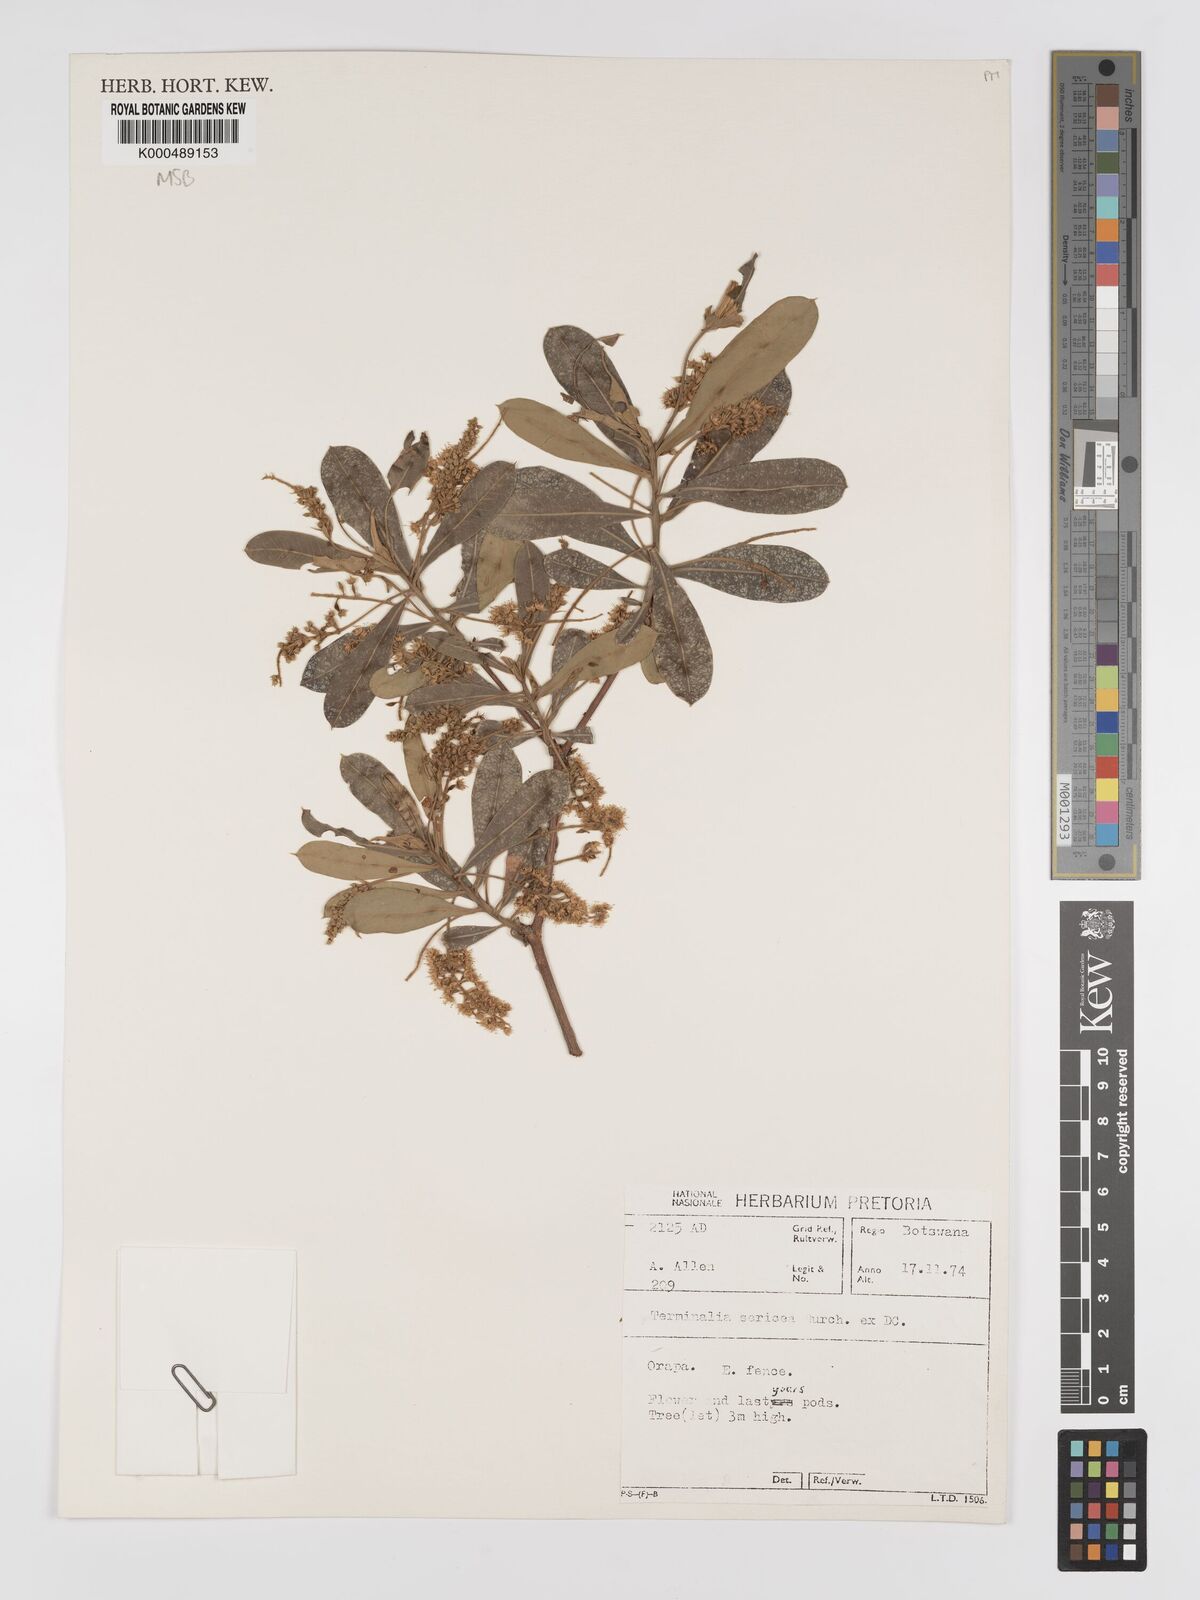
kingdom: Plantae
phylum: Tracheophyta
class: Magnoliopsida
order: Myrtales
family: Combretaceae
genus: Terminalia
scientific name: Terminalia sericea
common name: Clusterleaf
